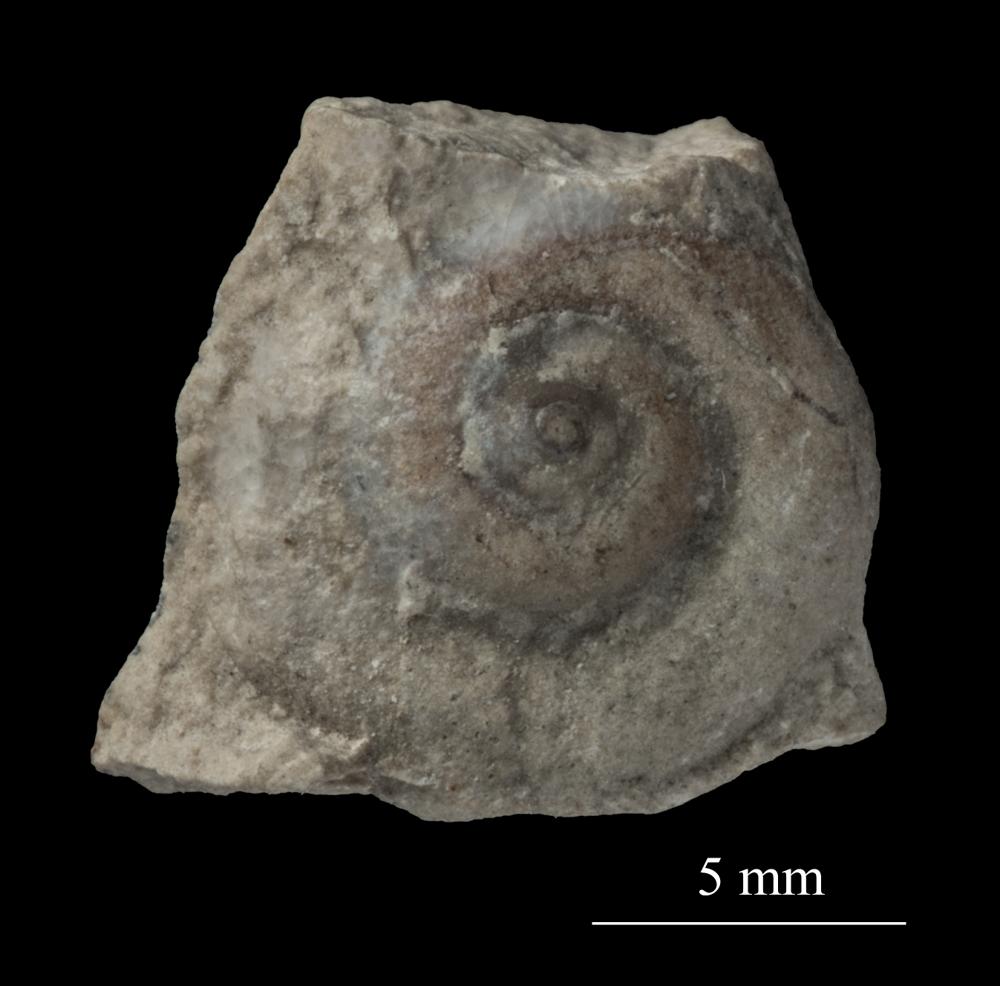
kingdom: Animalia
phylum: Mollusca
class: Gastropoda
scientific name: Gastropoda
